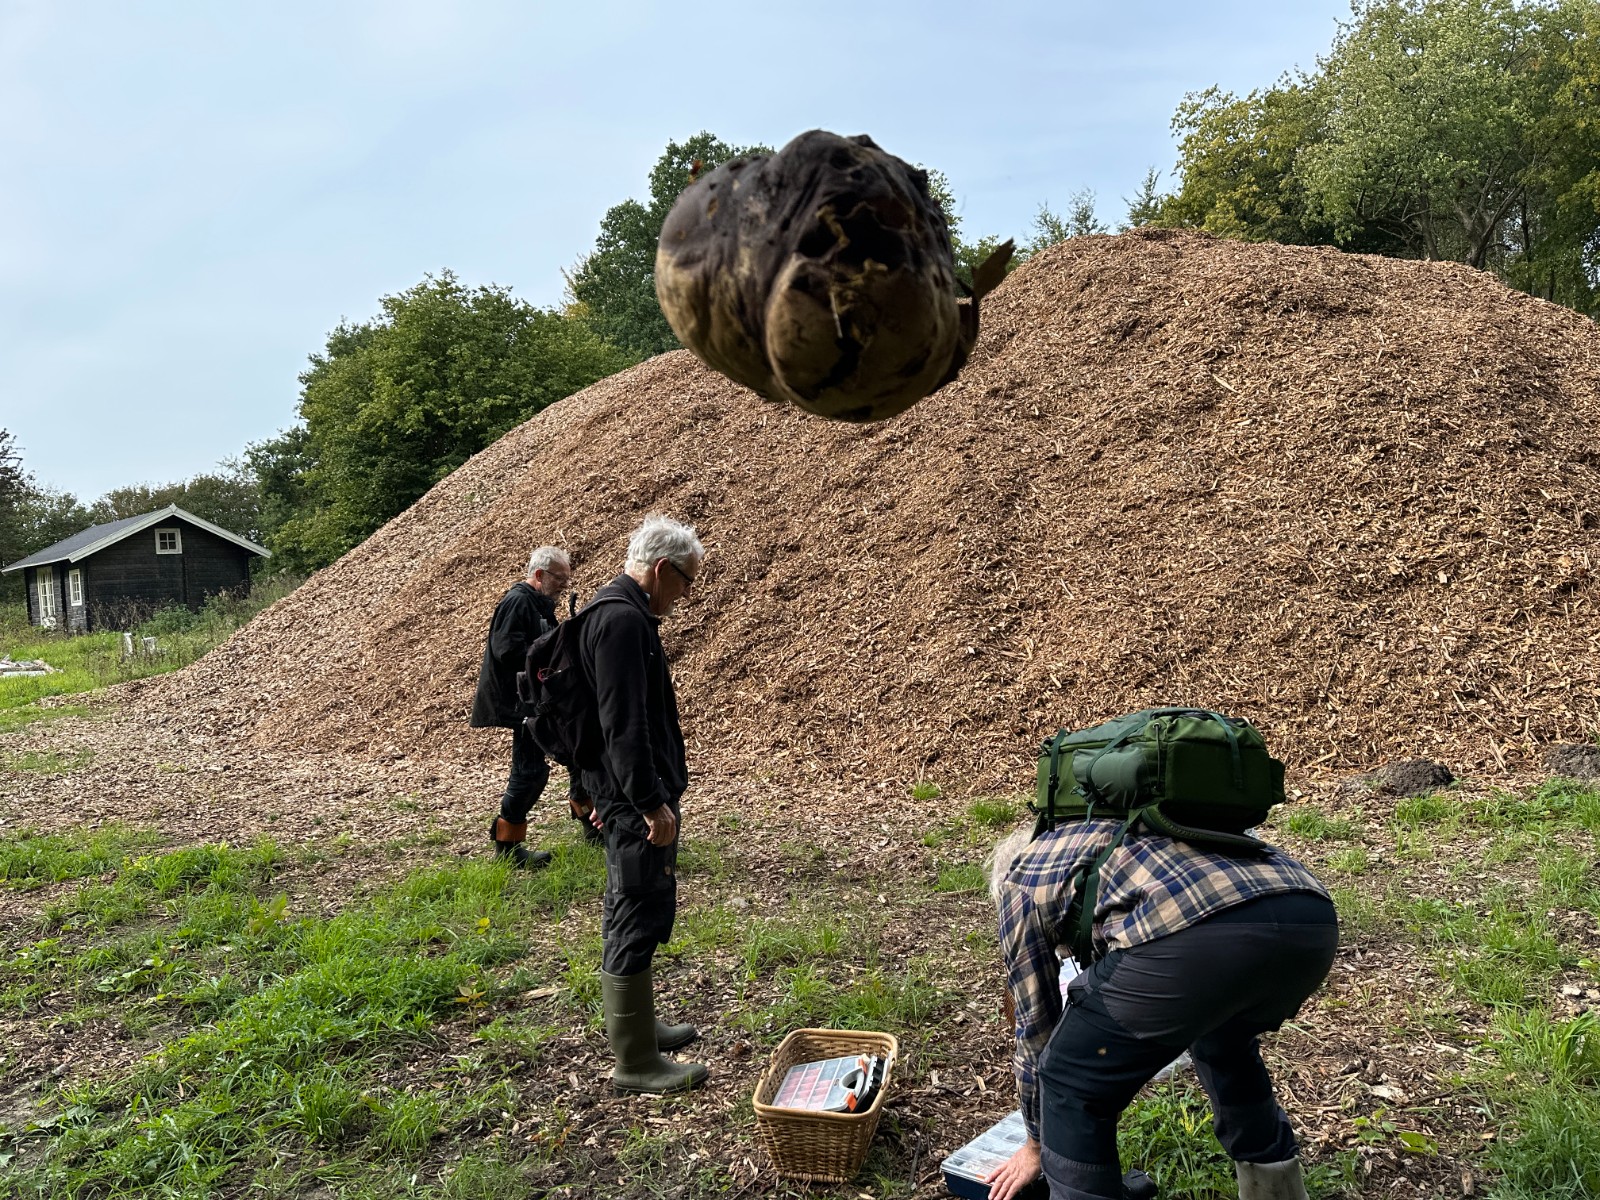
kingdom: Fungi
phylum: Basidiomycota
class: Agaricomycetes
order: Agaricales
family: Lycoperdaceae
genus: Calvatia
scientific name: Calvatia gigantea
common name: kæmpestøvbold
